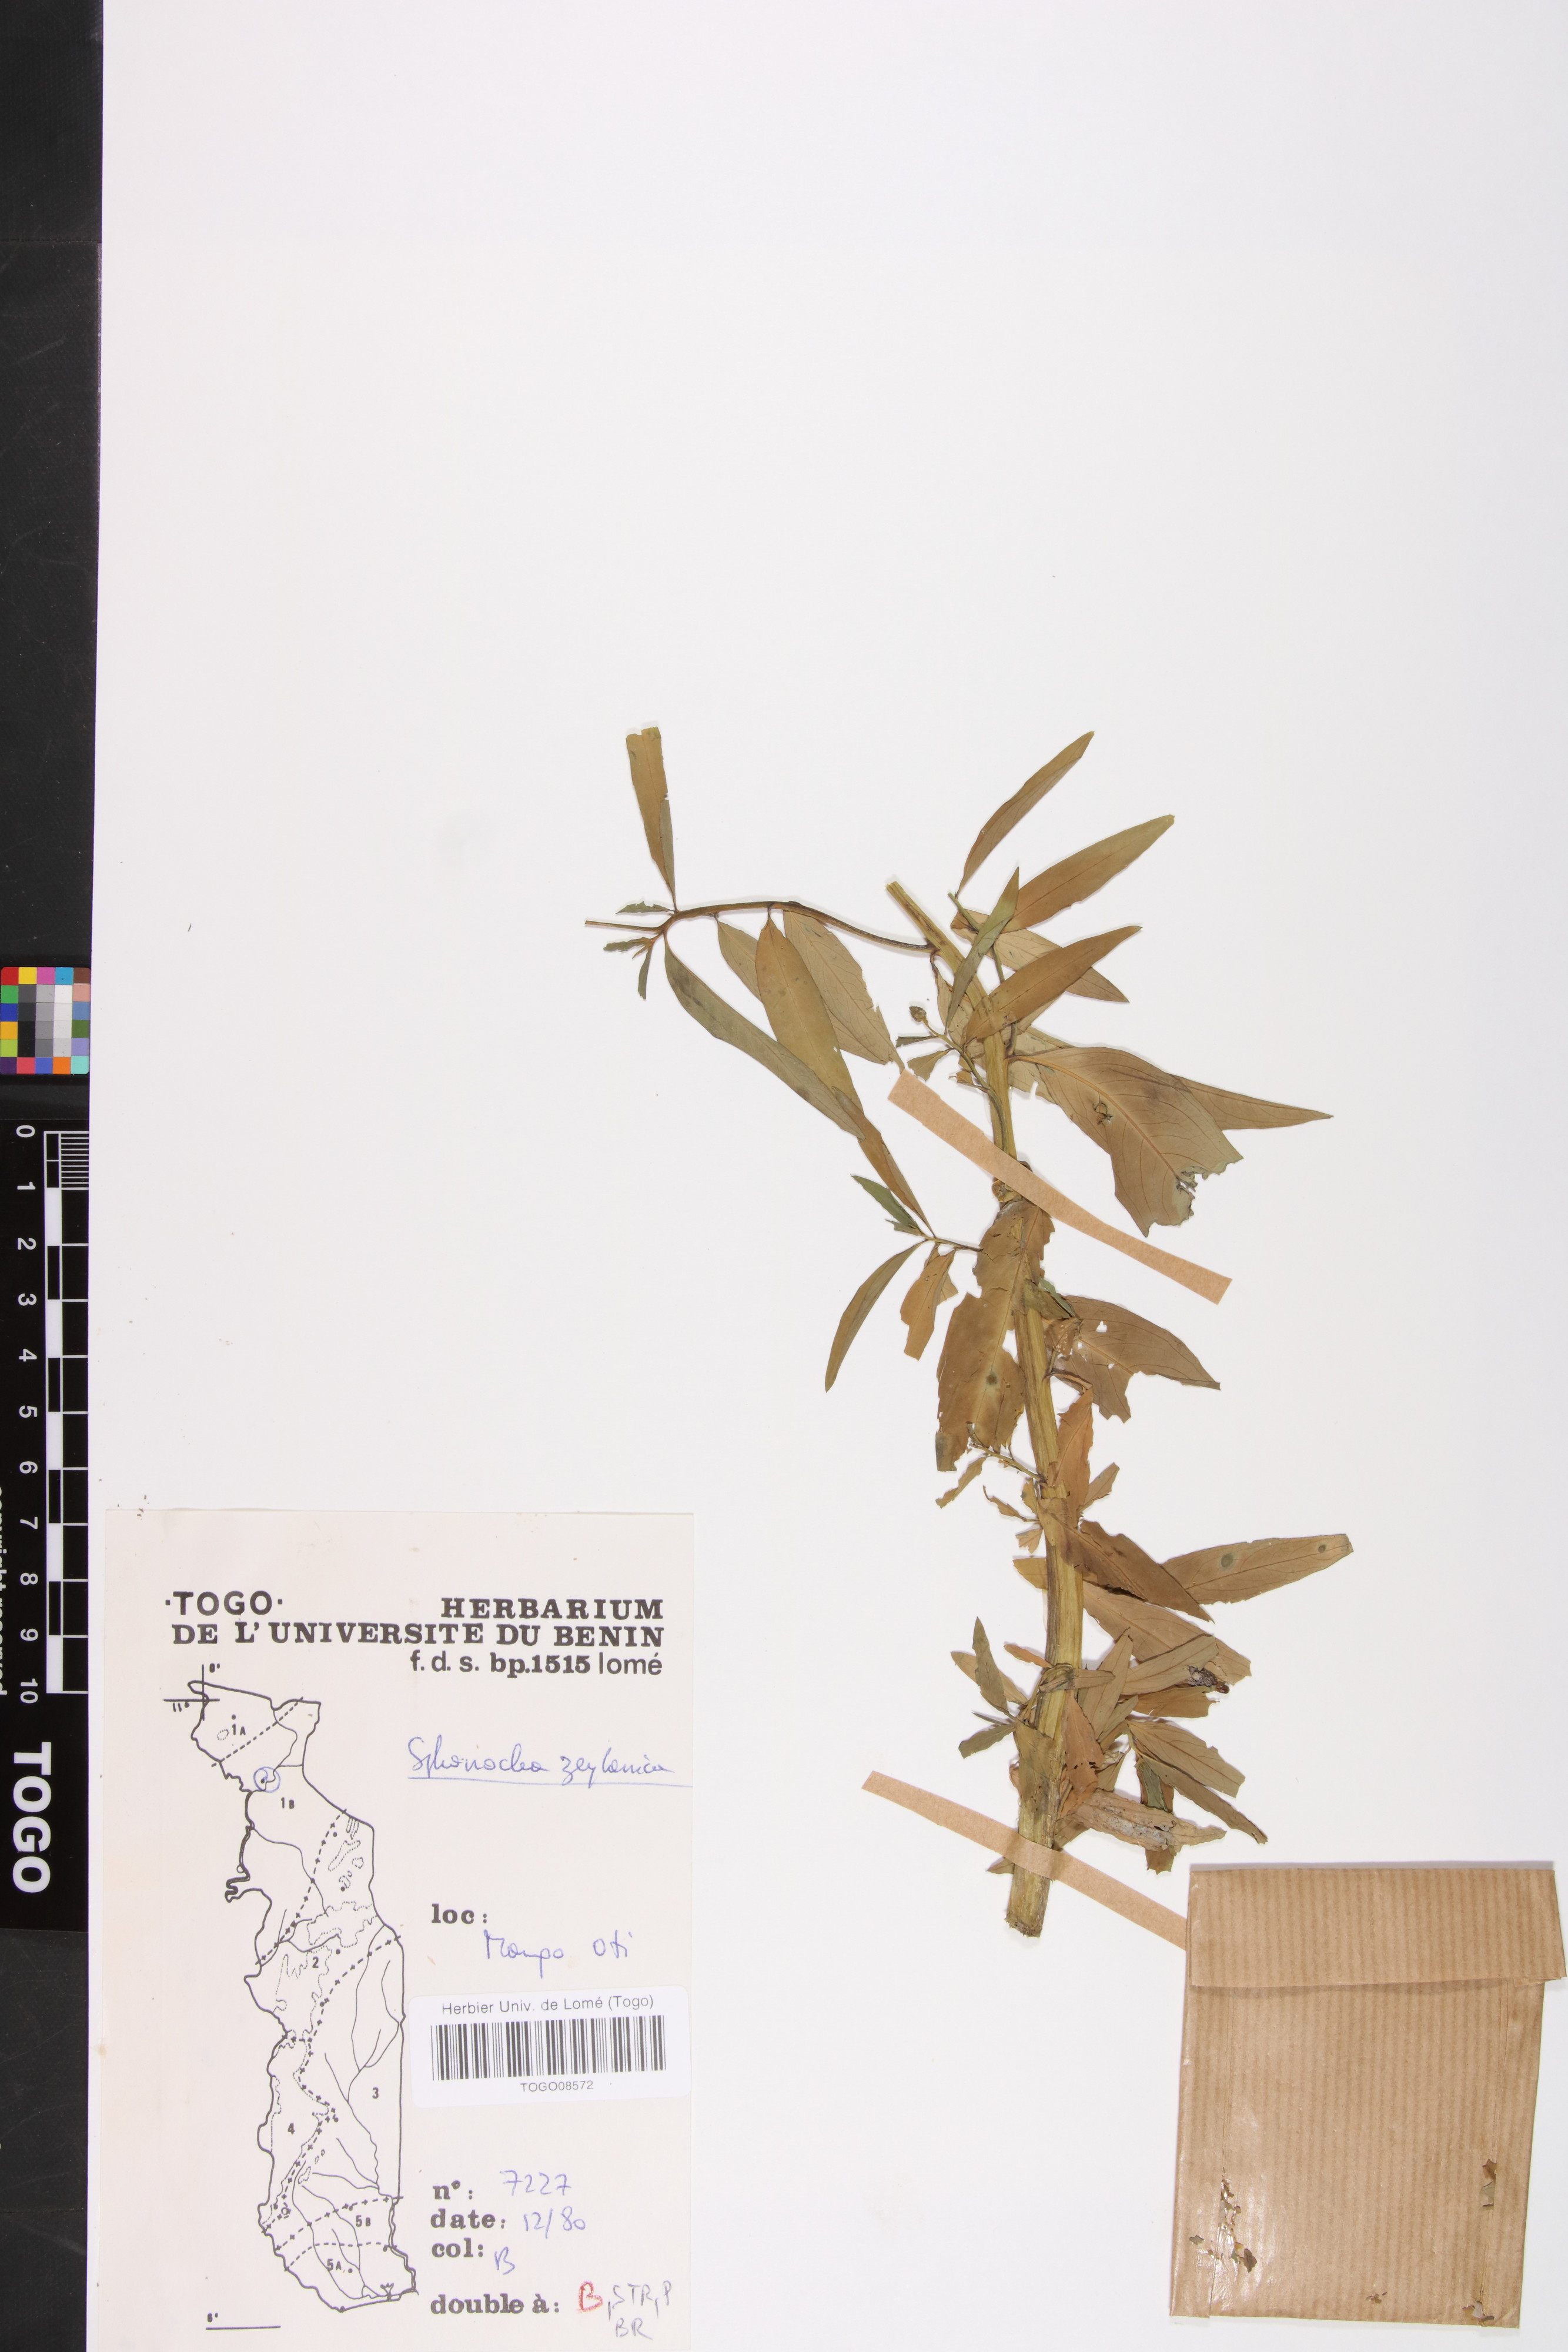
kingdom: Plantae
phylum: Tracheophyta
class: Magnoliopsida
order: Solanales
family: Sphenocleaceae
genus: Sphenoclea
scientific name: Sphenoclea zeylanica
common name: Chickenspike
